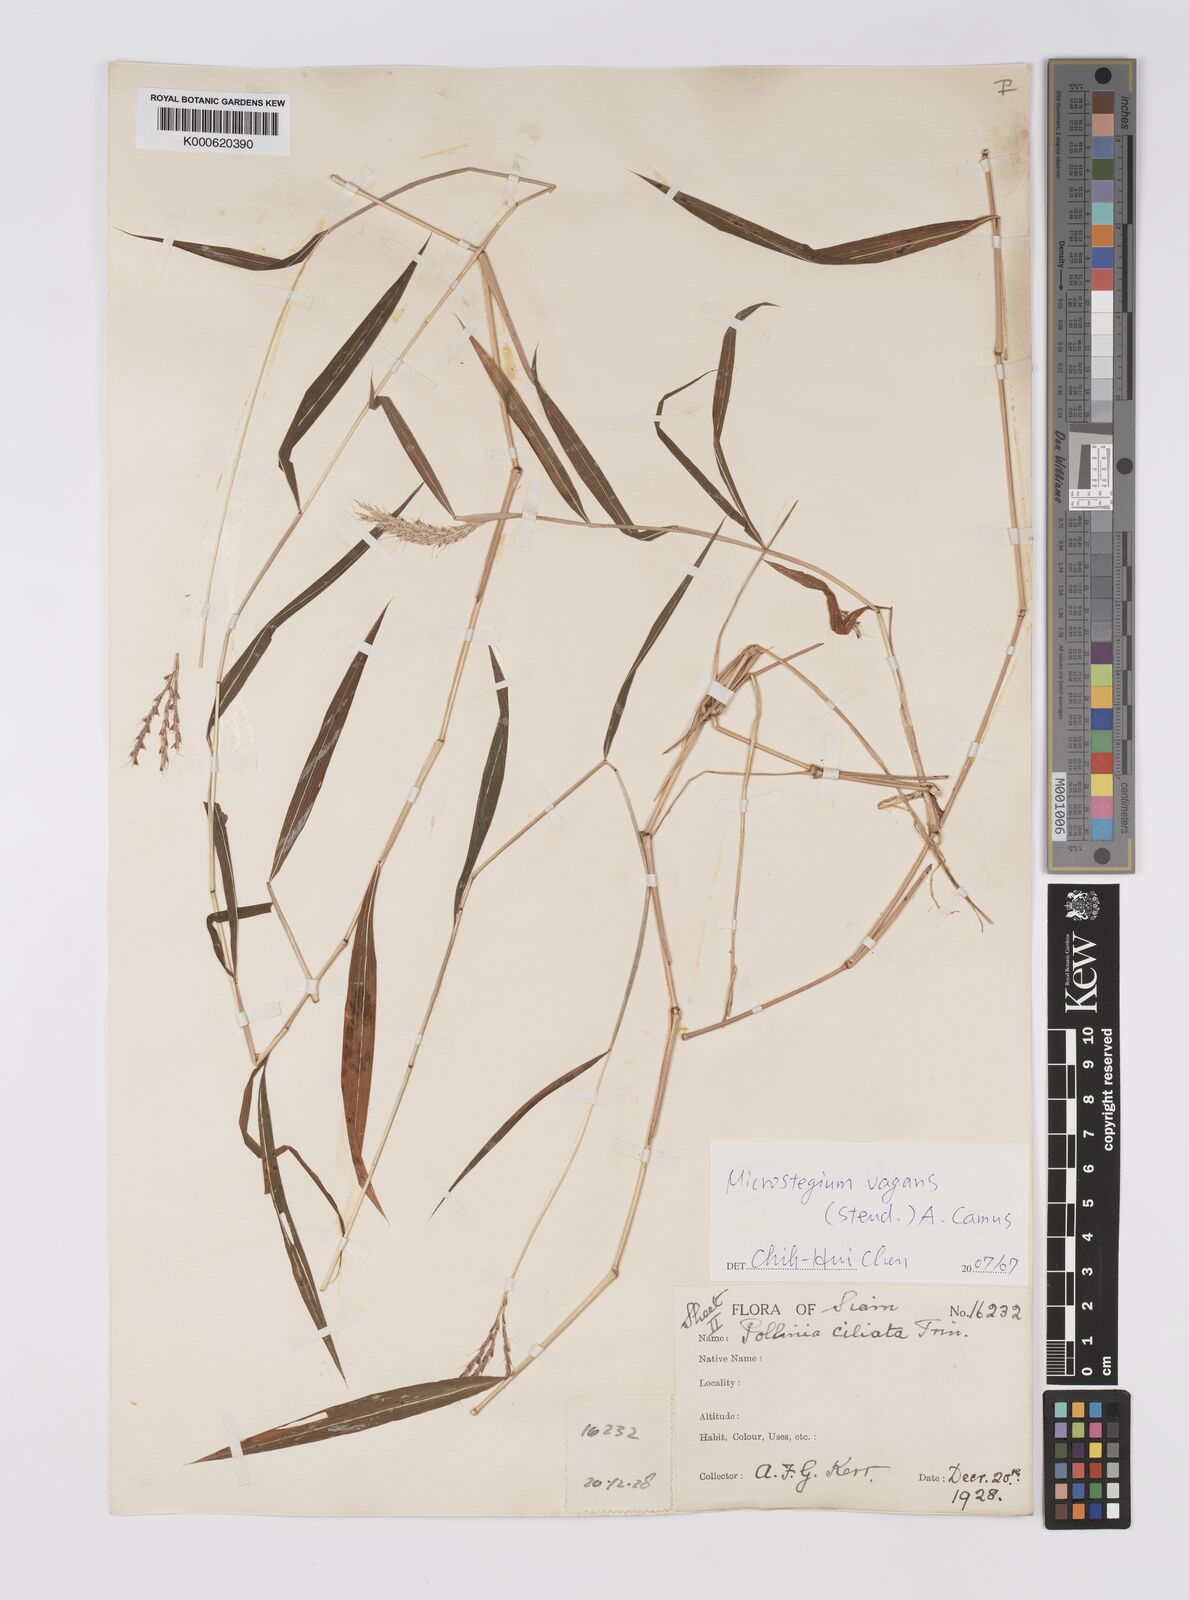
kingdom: Plantae
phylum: Tracheophyta
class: Liliopsida
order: Poales
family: Poaceae
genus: Microstegium
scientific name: Microstegium fasciculatum
